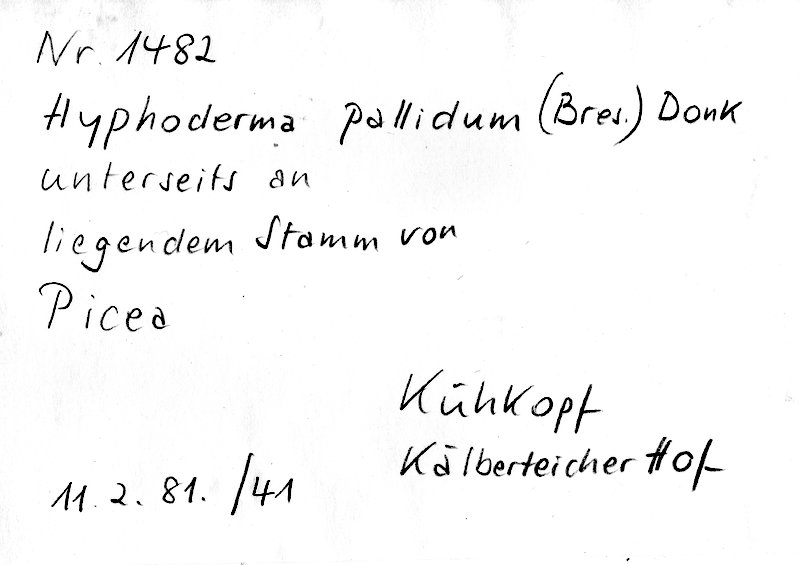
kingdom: Plantae
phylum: Tracheophyta
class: Pinopsida
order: Pinales
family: Pinaceae
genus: Picea
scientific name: Picea
